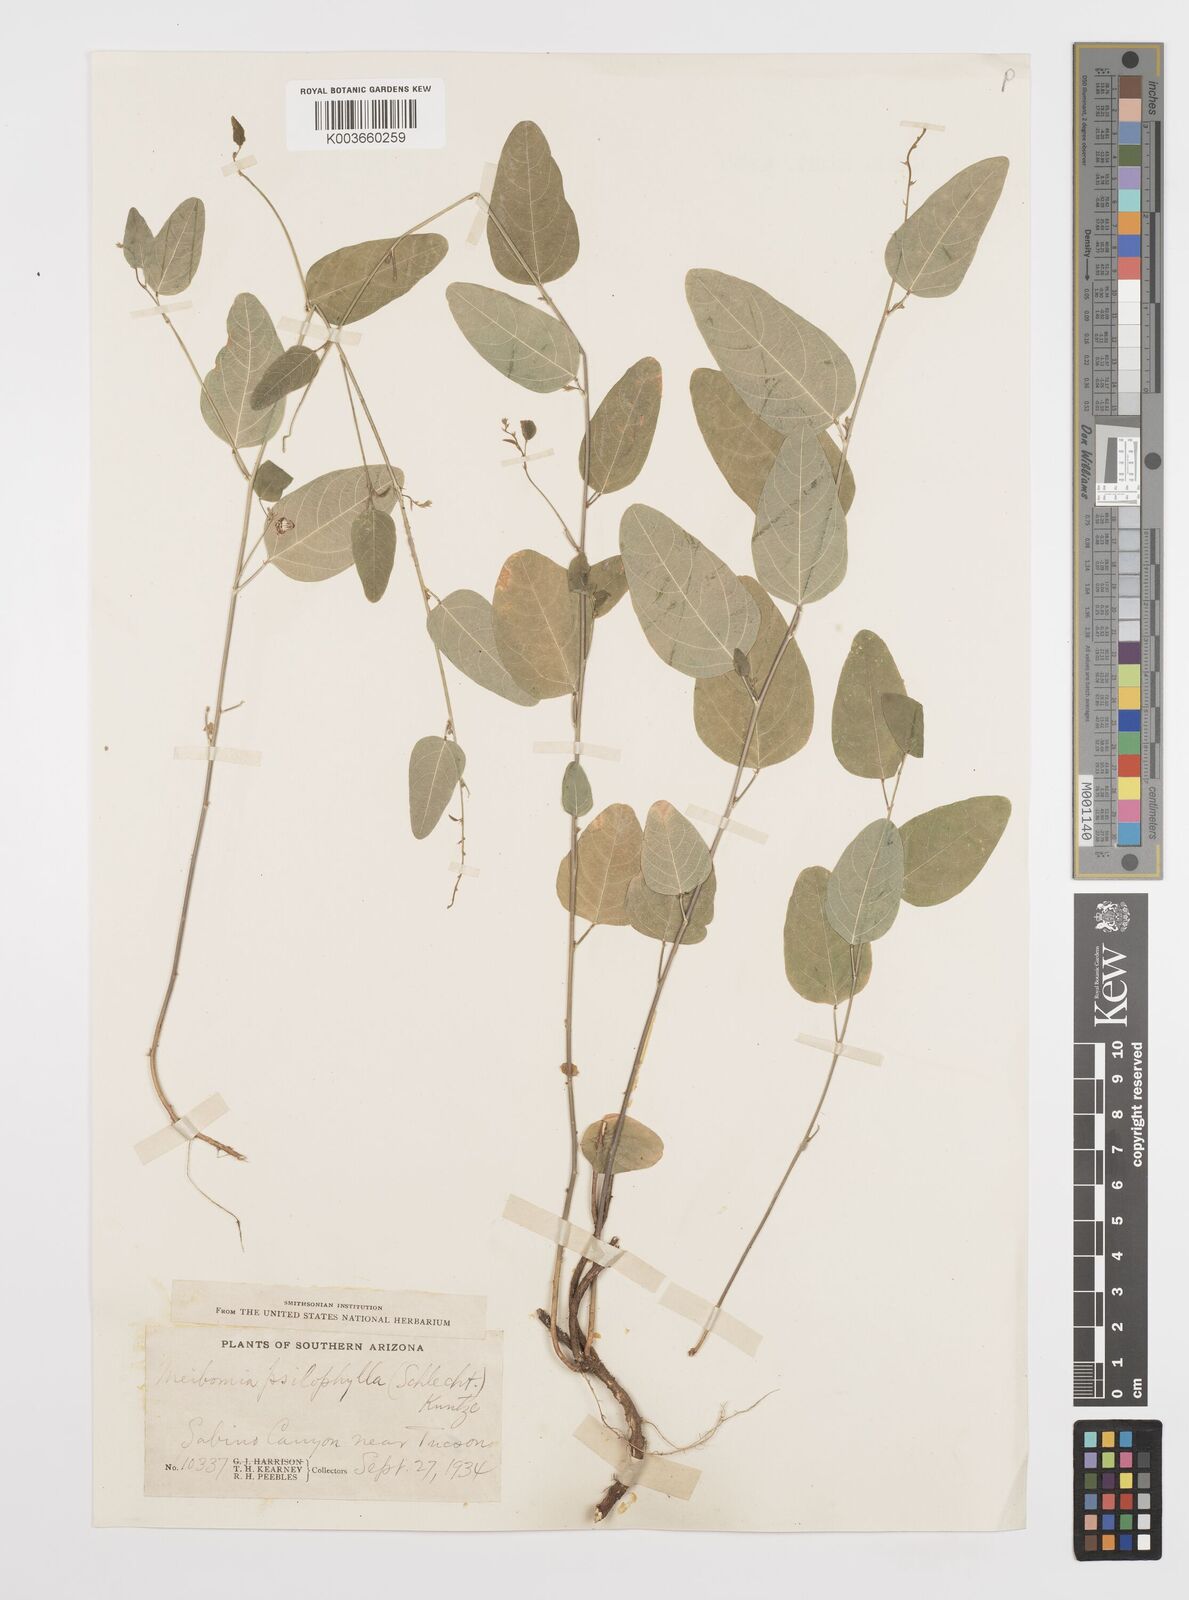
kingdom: Plantae
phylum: Tracheophyta
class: Magnoliopsida
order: Fabales
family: Fabaceae
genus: Desmodium
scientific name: Desmodium psilophyllum
